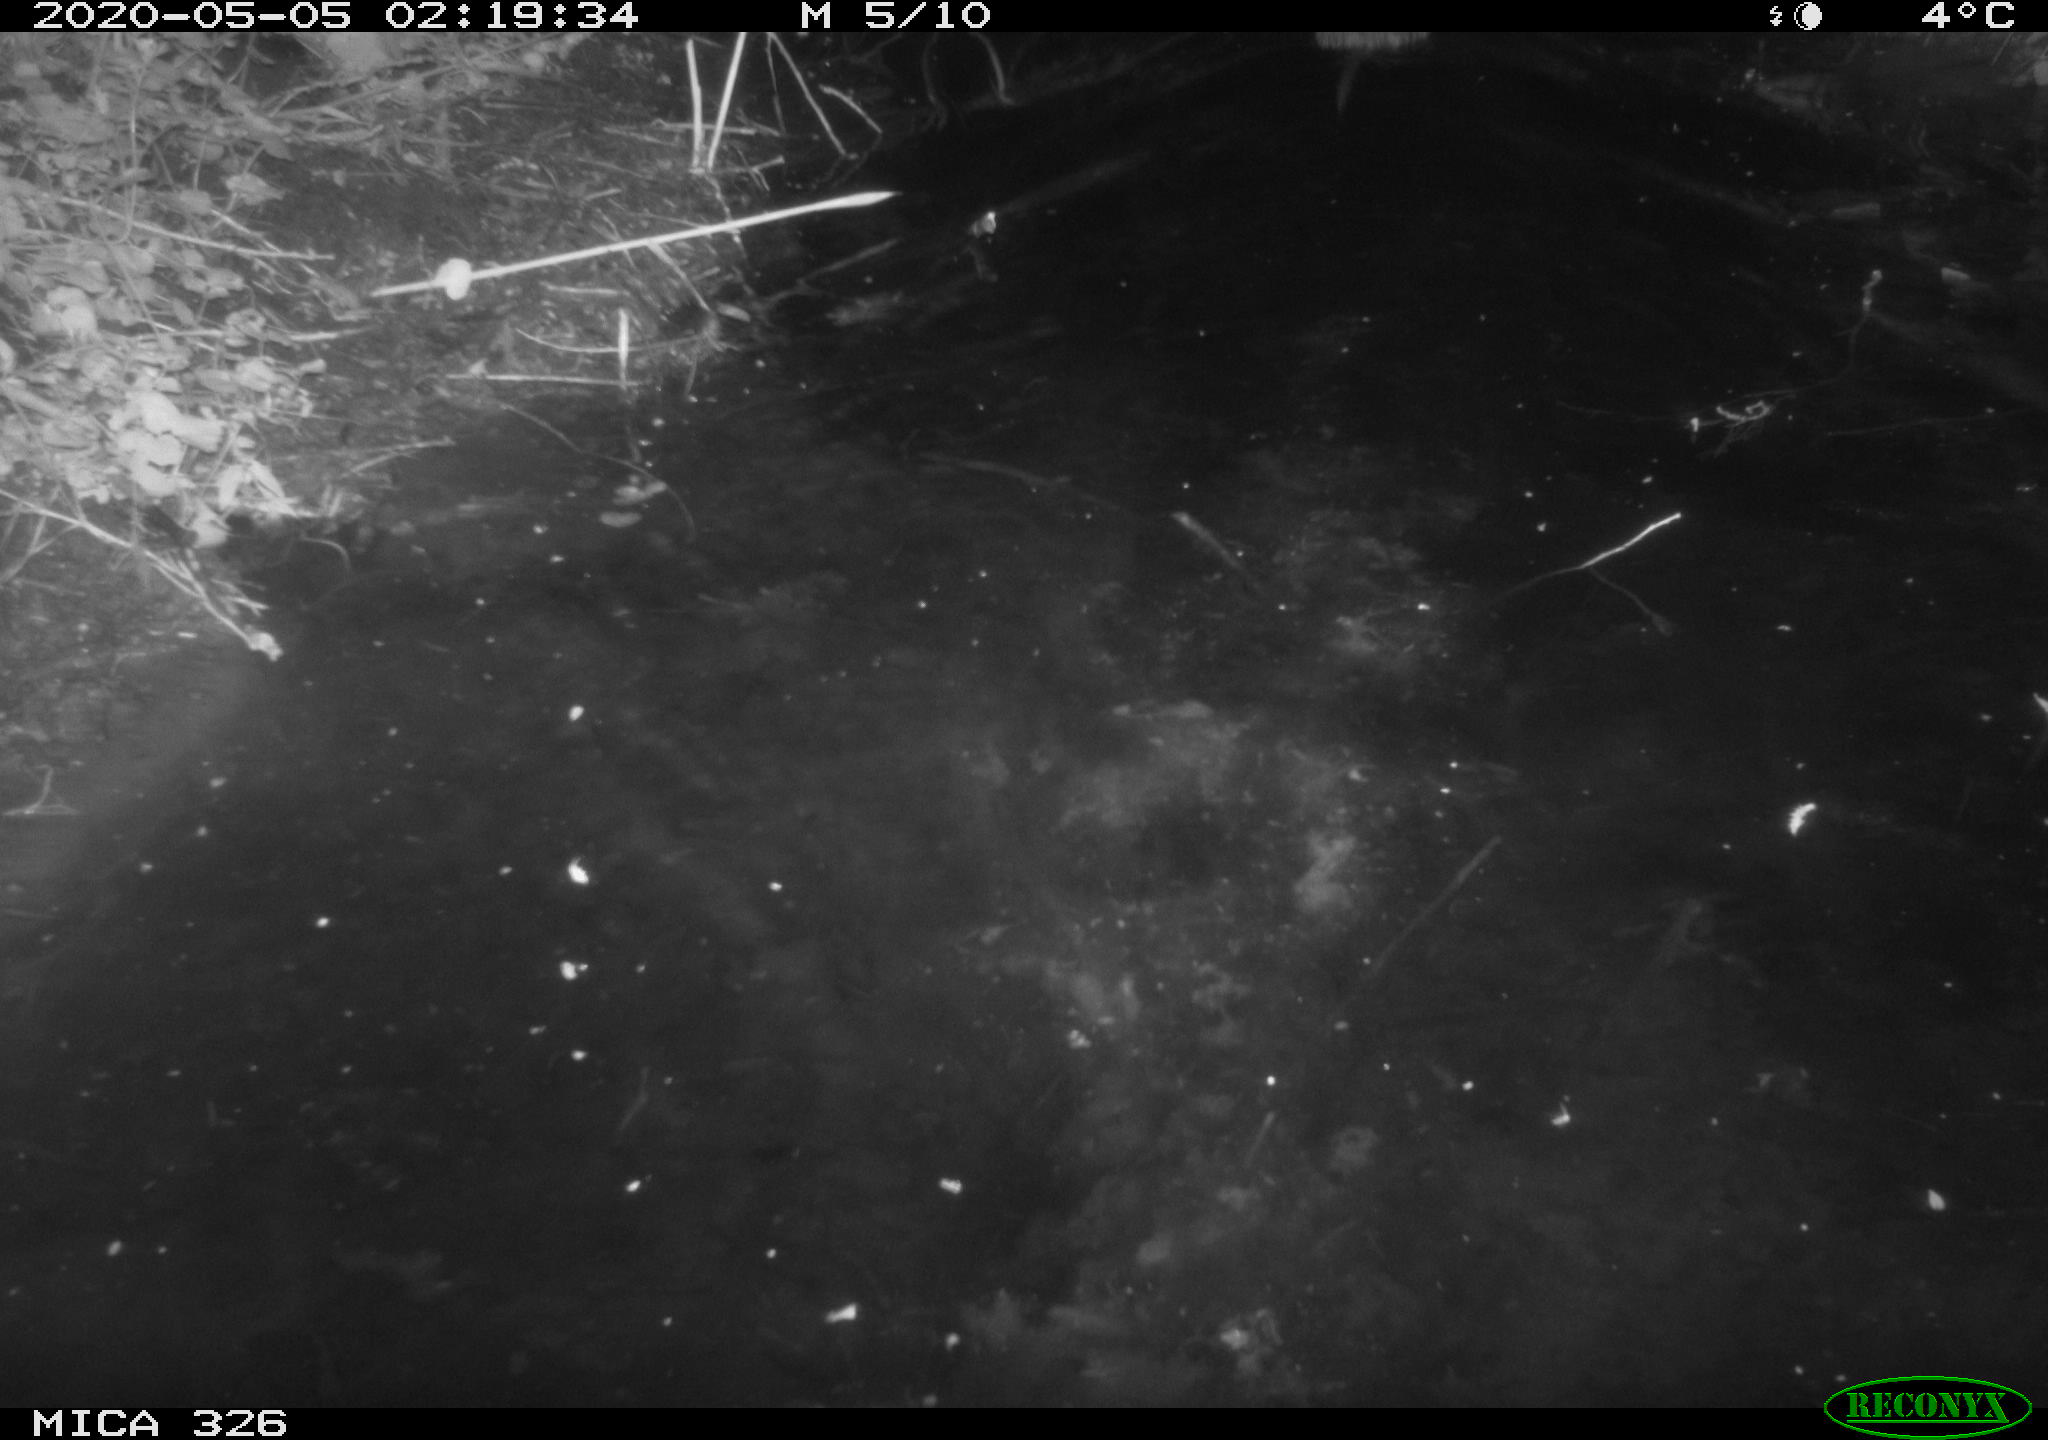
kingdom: Animalia
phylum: Chordata
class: Mammalia
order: Rodentia
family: Myocastoridae
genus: Myocastor
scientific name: Myocastor coypus
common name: Coypu
